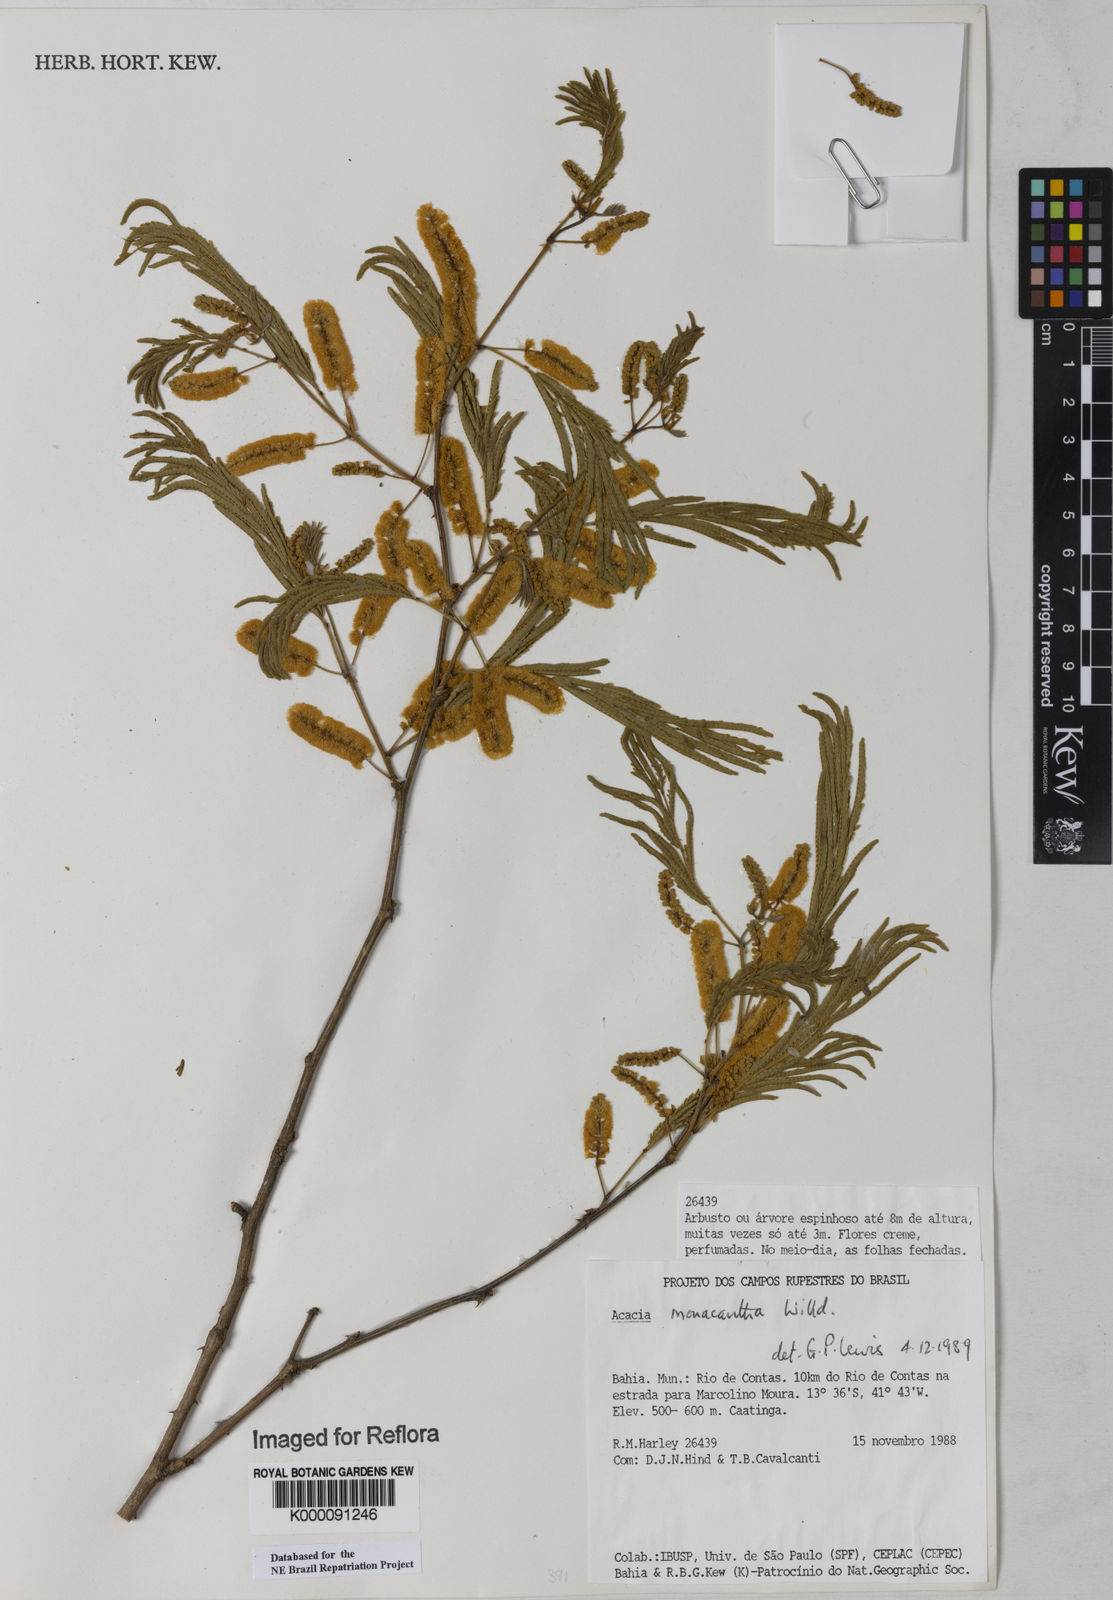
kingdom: Plantae
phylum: Tracheophyta
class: Magnoliopsida
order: Fabales
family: Fabaceae
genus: Senegalia
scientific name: Senegalia monacantha
